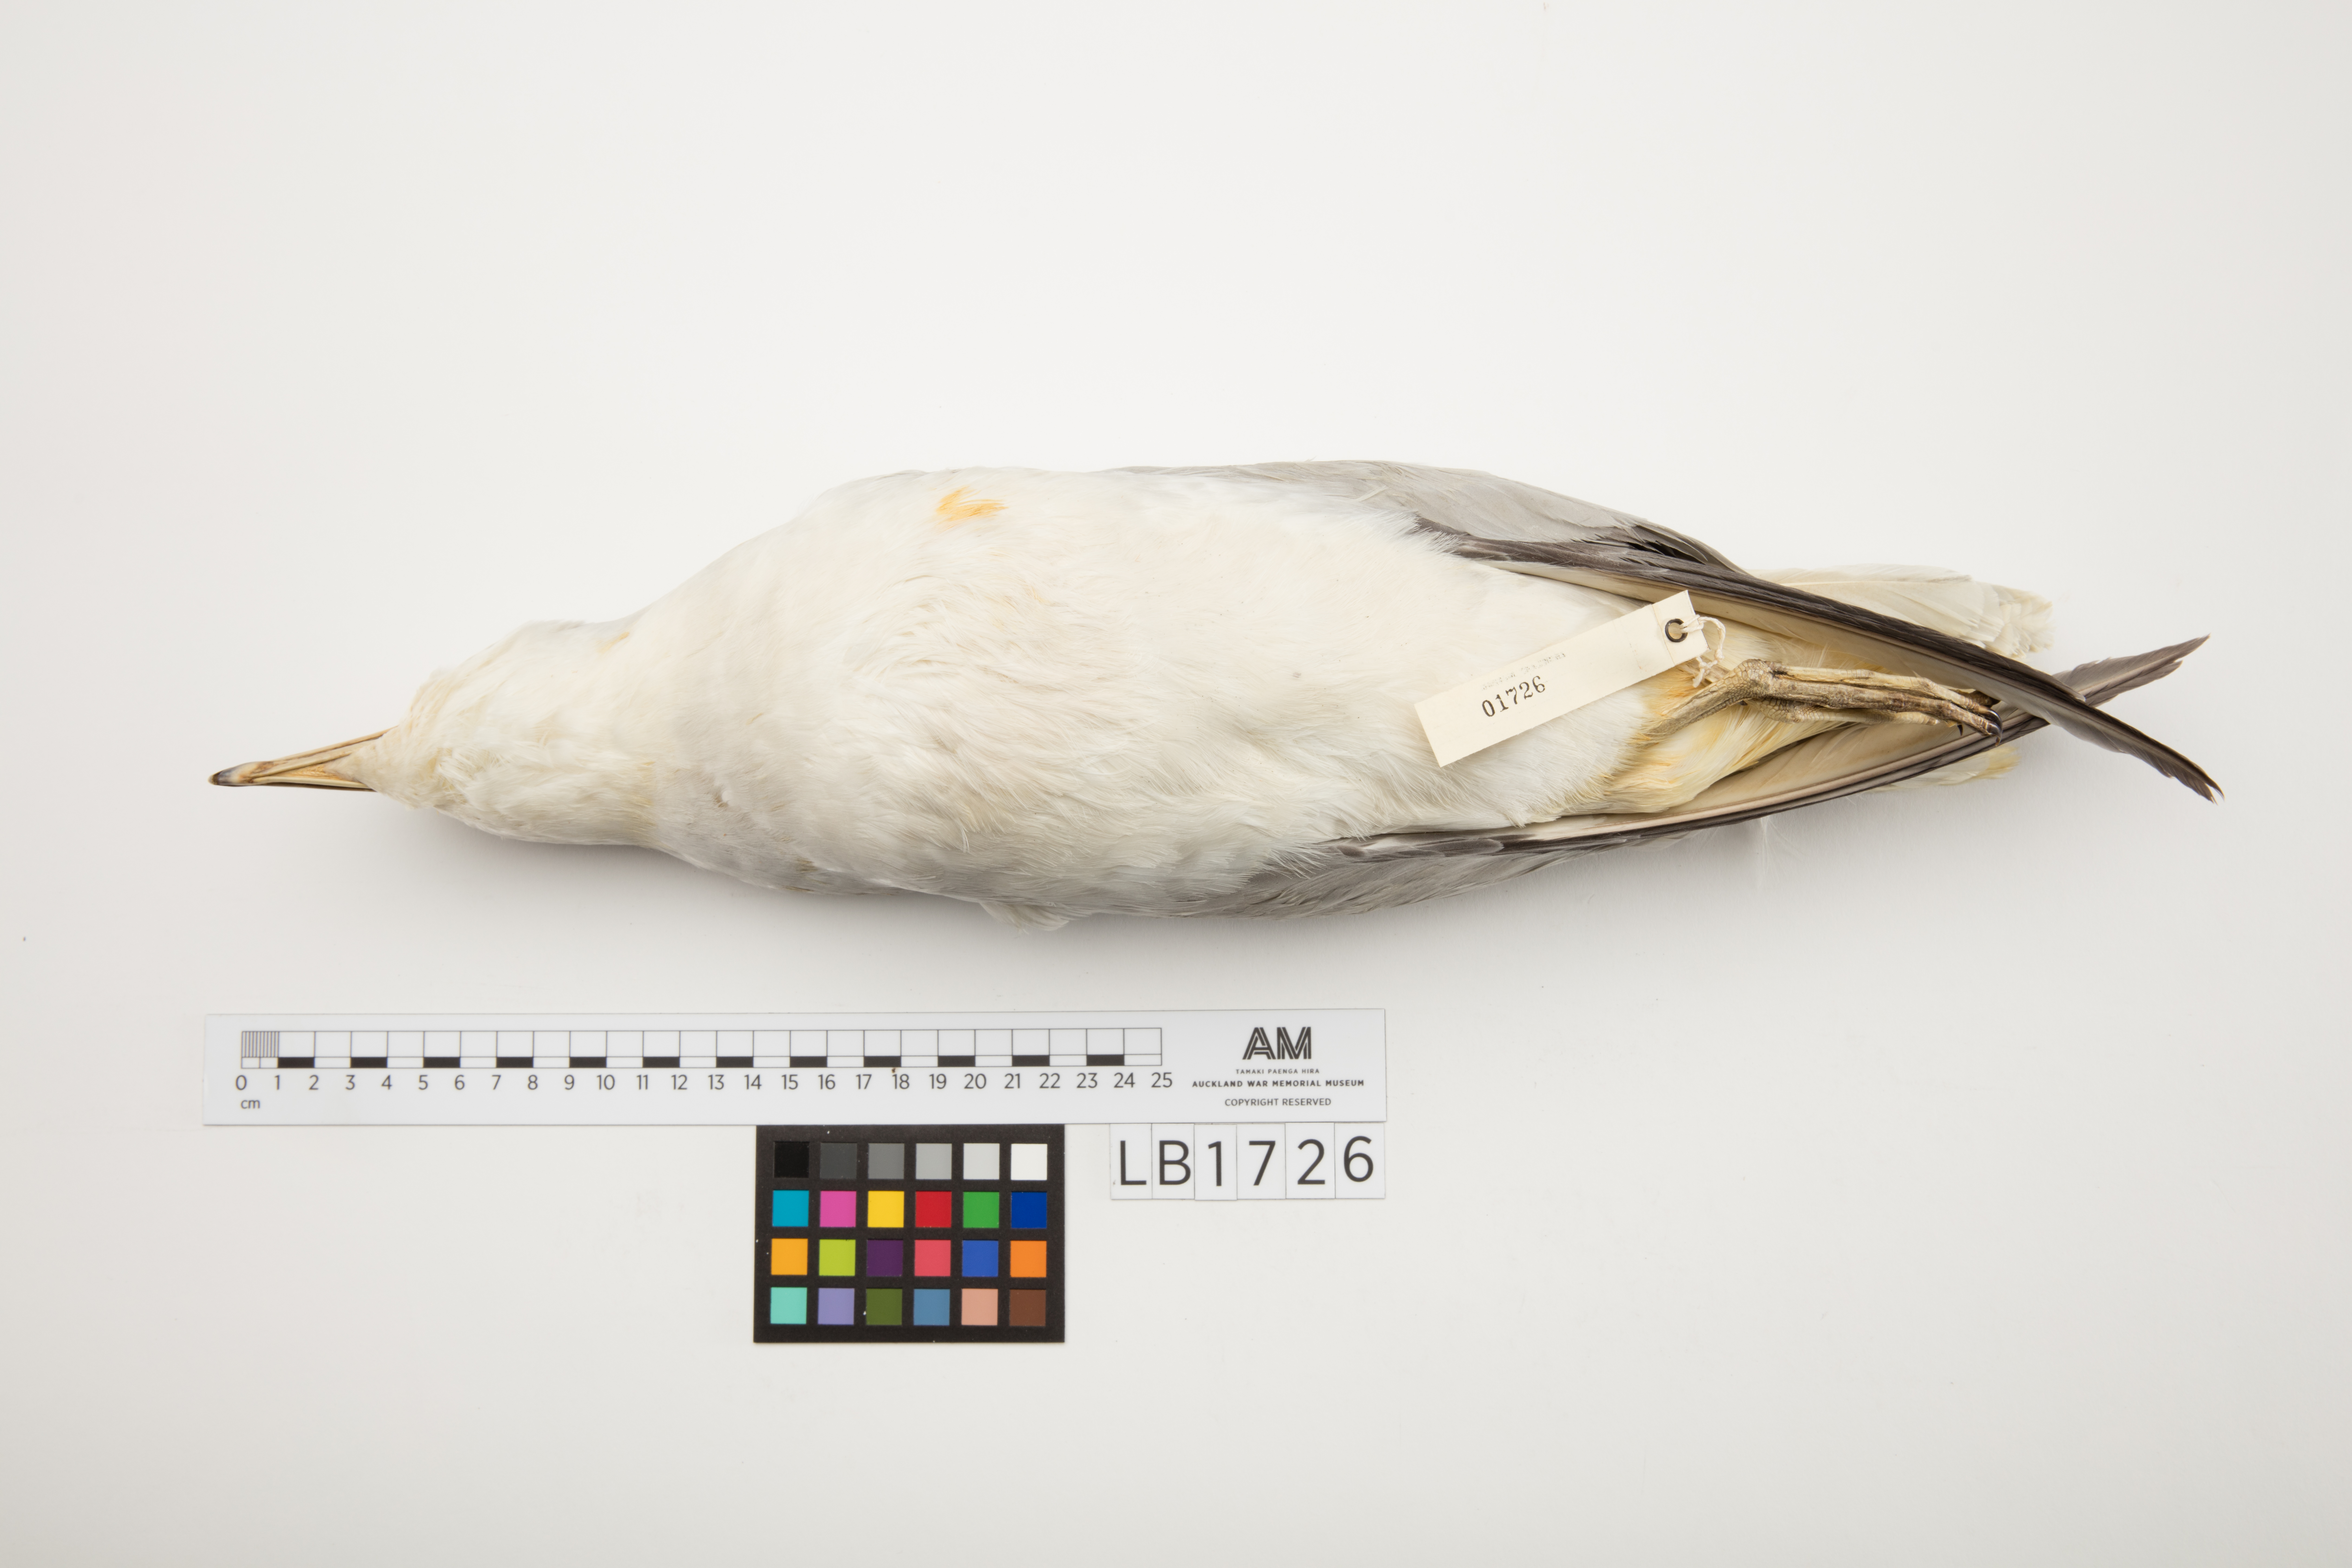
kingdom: Animalia
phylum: Chordata
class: Aves
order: Procellariiformes
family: Procellariidae
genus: Fulmarus
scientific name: Fulmarus glacialoides
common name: Southern fulmar
